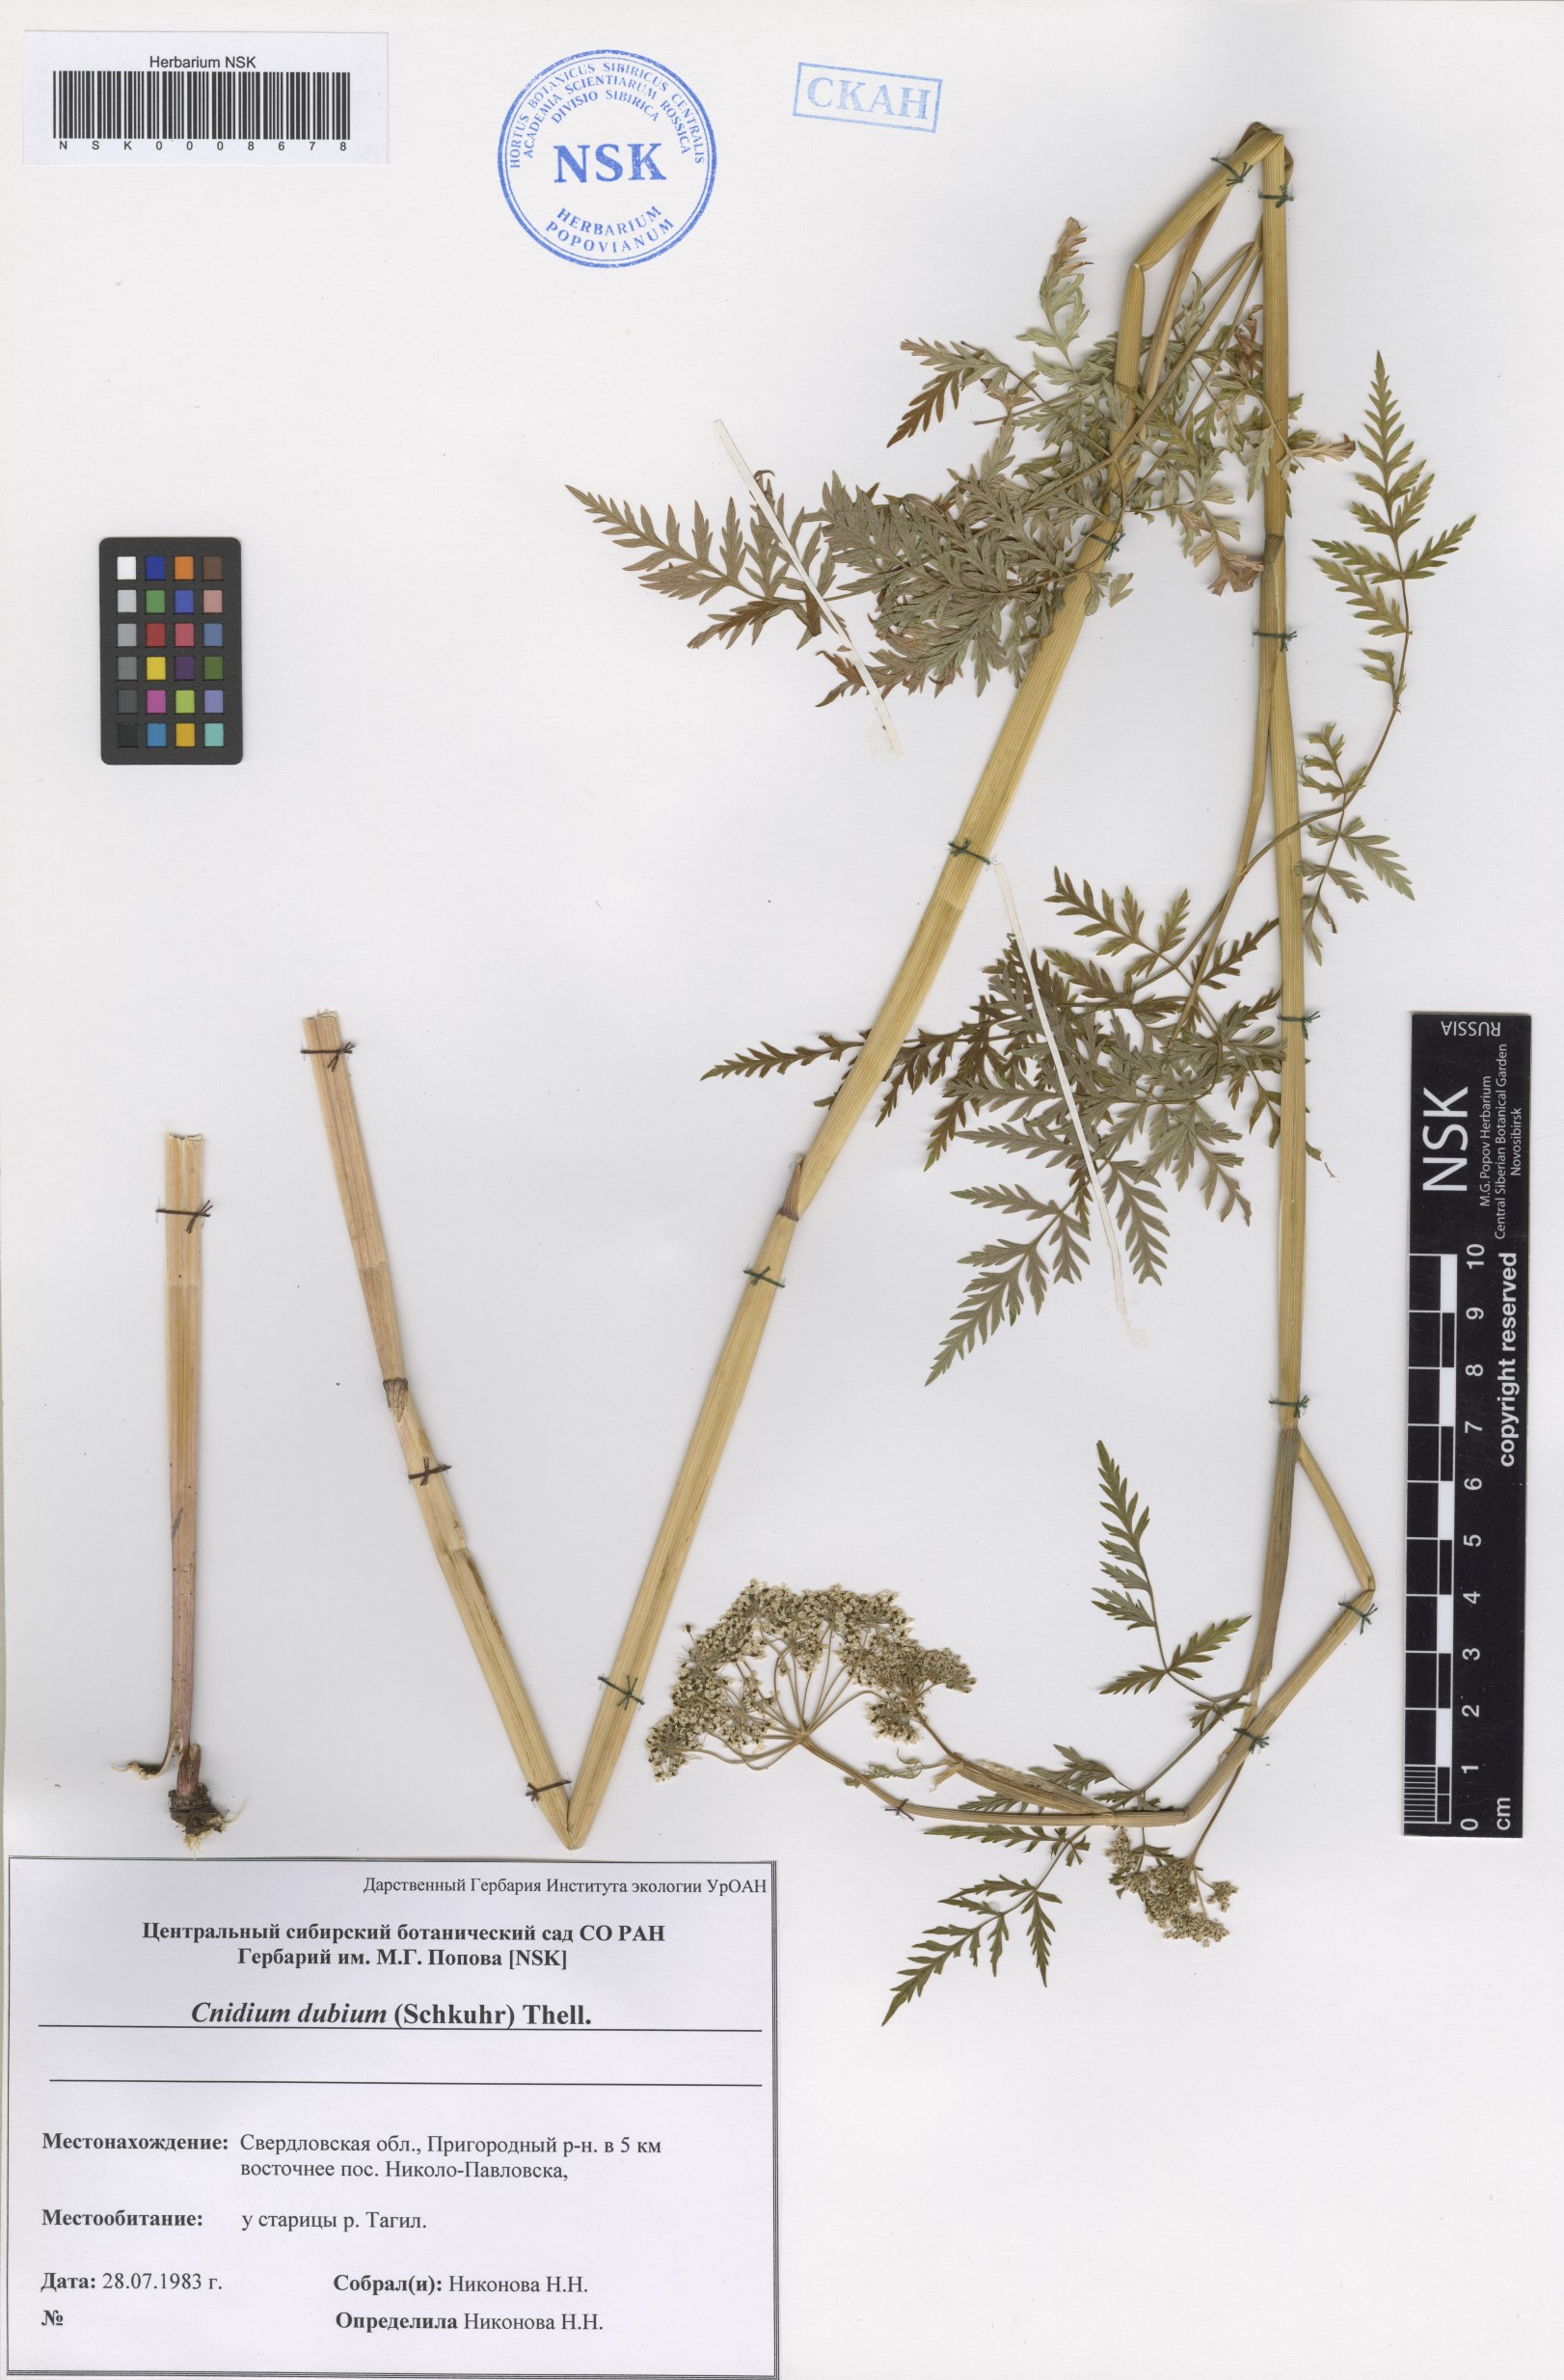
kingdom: Plantae
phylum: Tracheophyta
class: Magnoliopsida
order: Apiales
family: Apiaceae
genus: Kadenia
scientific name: Kadenia dubia
